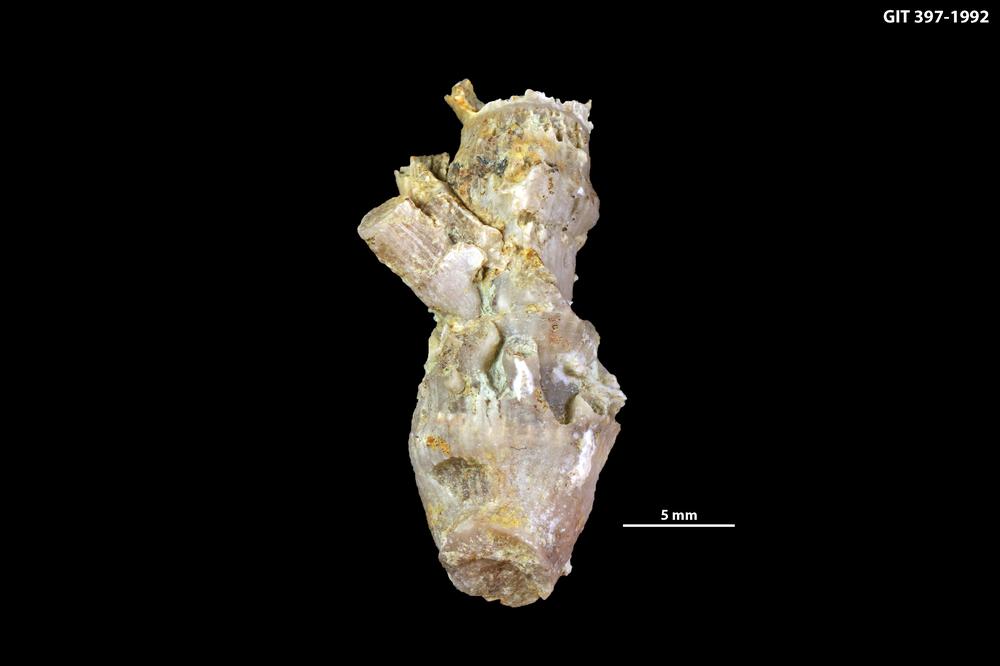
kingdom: Animalia
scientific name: Animalia
